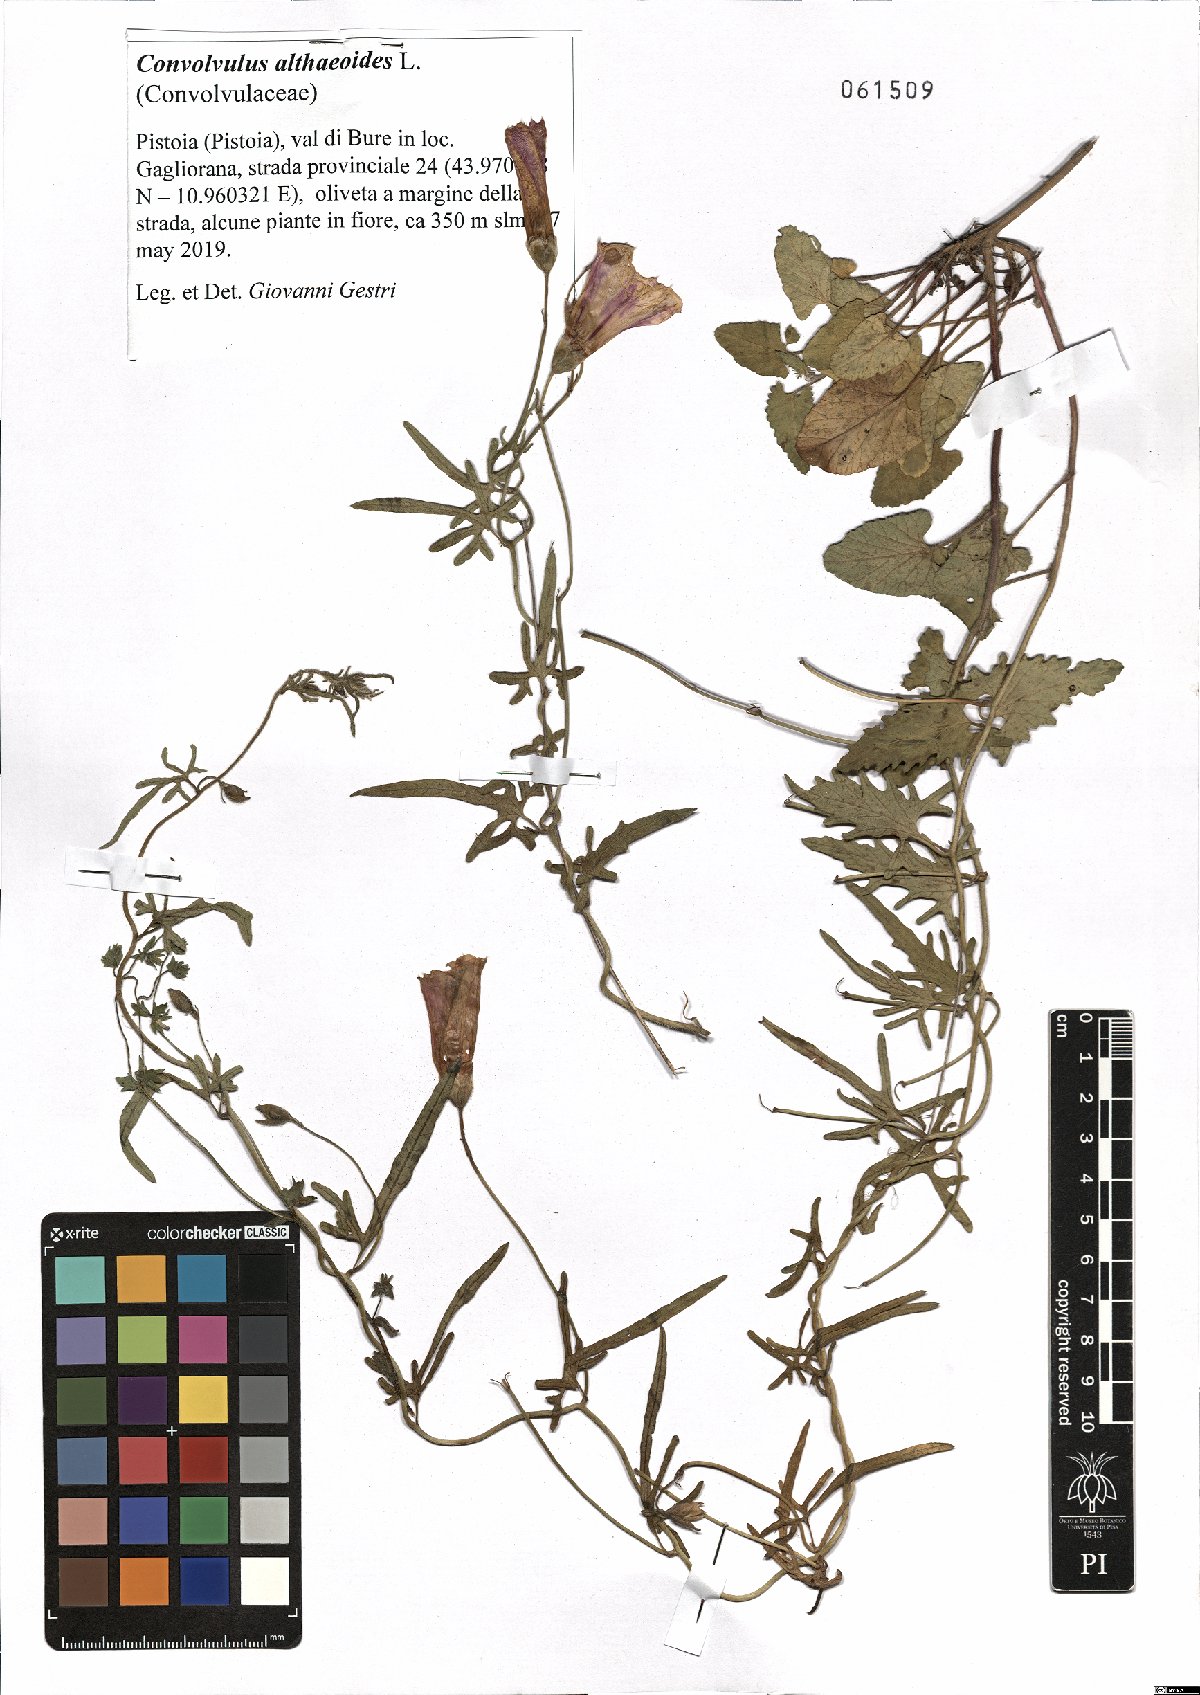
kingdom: Plantae
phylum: Tracheophyta
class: Magnoliopsida
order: Solanales
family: Convolvulaceae
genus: Convolvulus
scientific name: Convolvulus althaeoides
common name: Mallow bindweed
